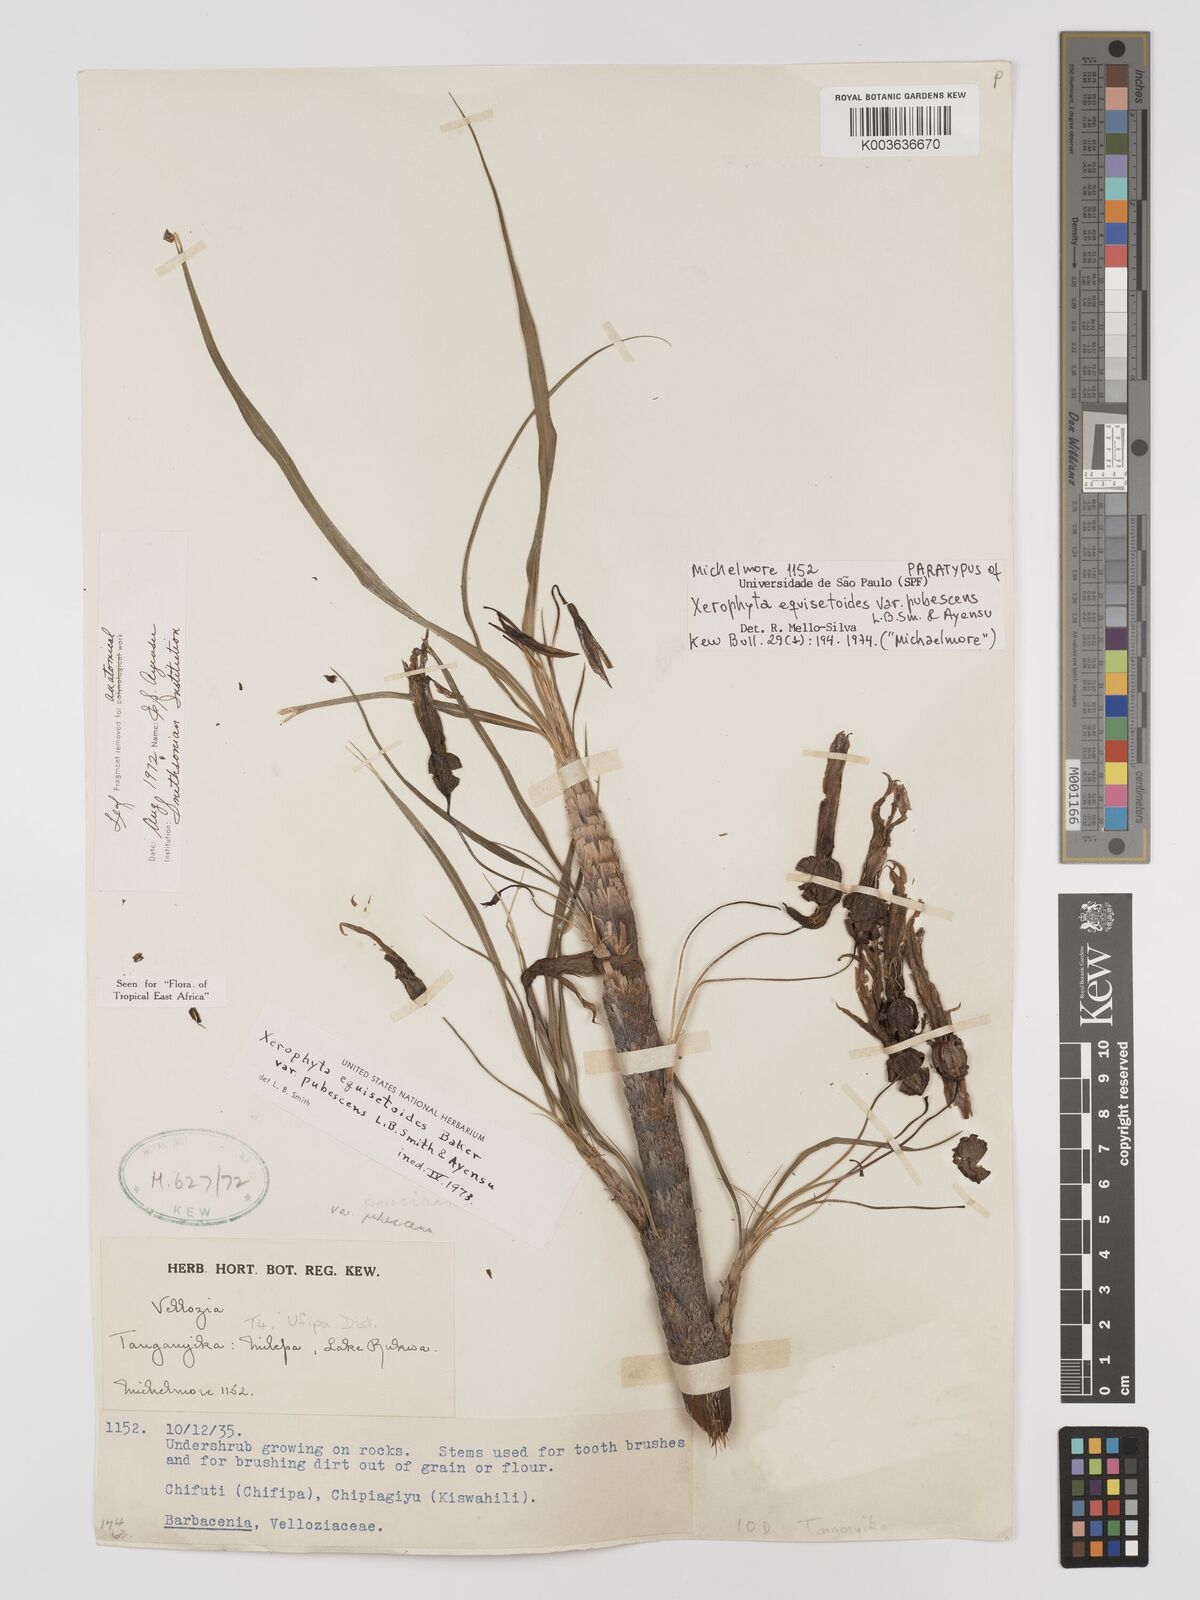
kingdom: Plantae
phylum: Tracheophyta
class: Liliopsida
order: Pandanales
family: Velloziaceae
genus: Xerophyta
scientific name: Xerophyta wentzeliana
